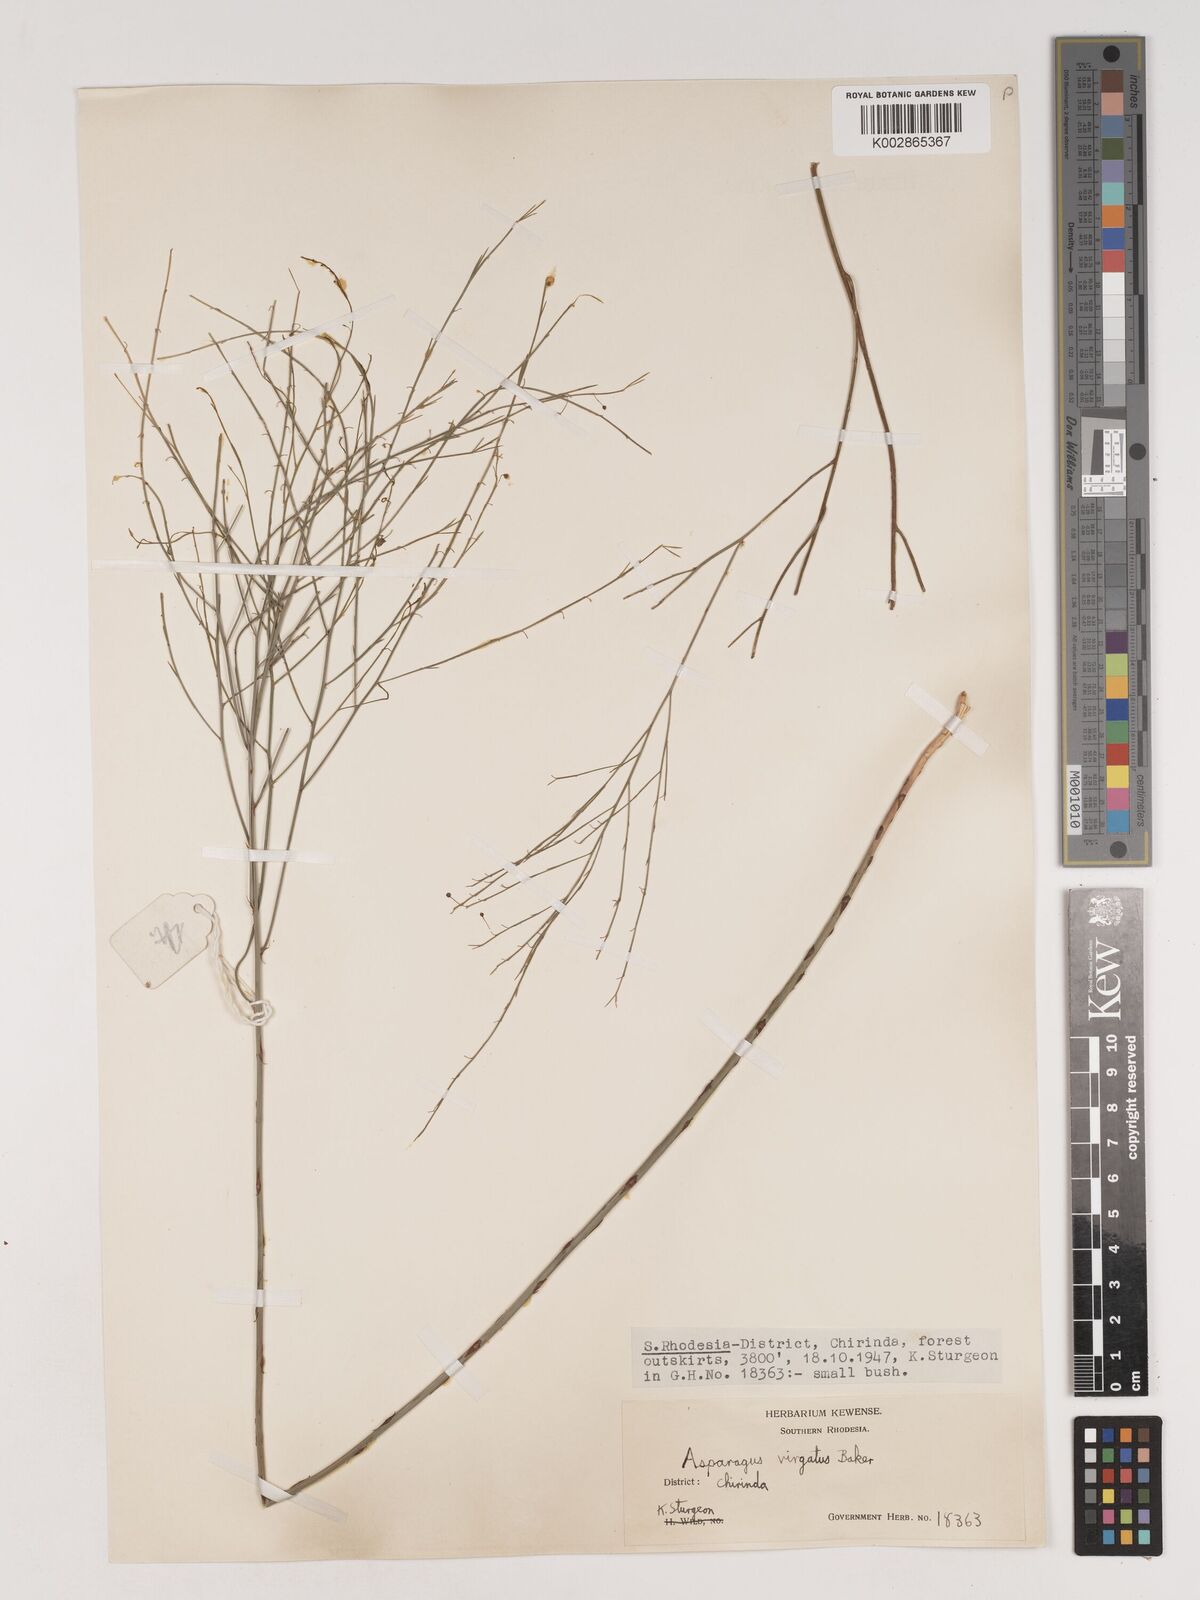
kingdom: Plantae
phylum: Tracheophyta
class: Liliopsida
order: Asparagales
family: Asparagaceae
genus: Asparagus
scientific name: Asparagus virgatus
